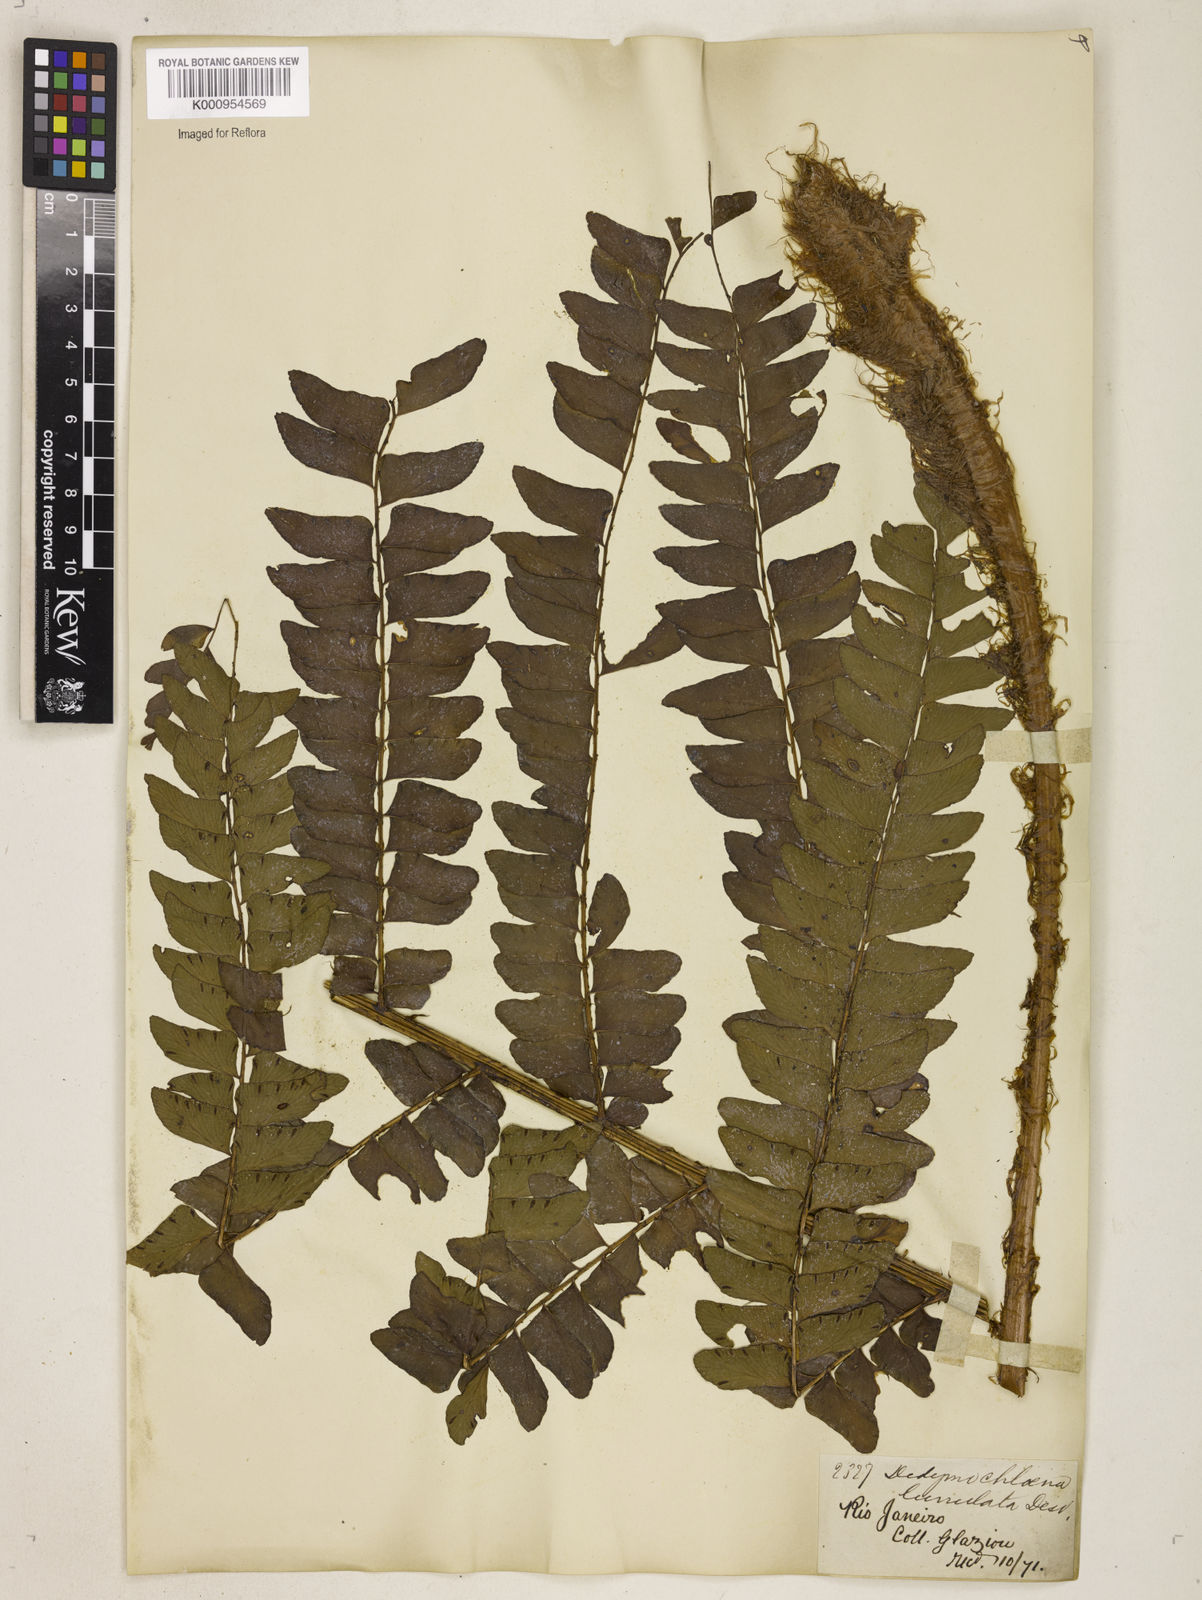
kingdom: Plantae
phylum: Tracheophyta
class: Polypodiopsida
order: Polypodiales
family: Didymochlaenaceae
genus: Didymochlaena
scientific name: Didymochlaena truncatula
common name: Mahogany fern
